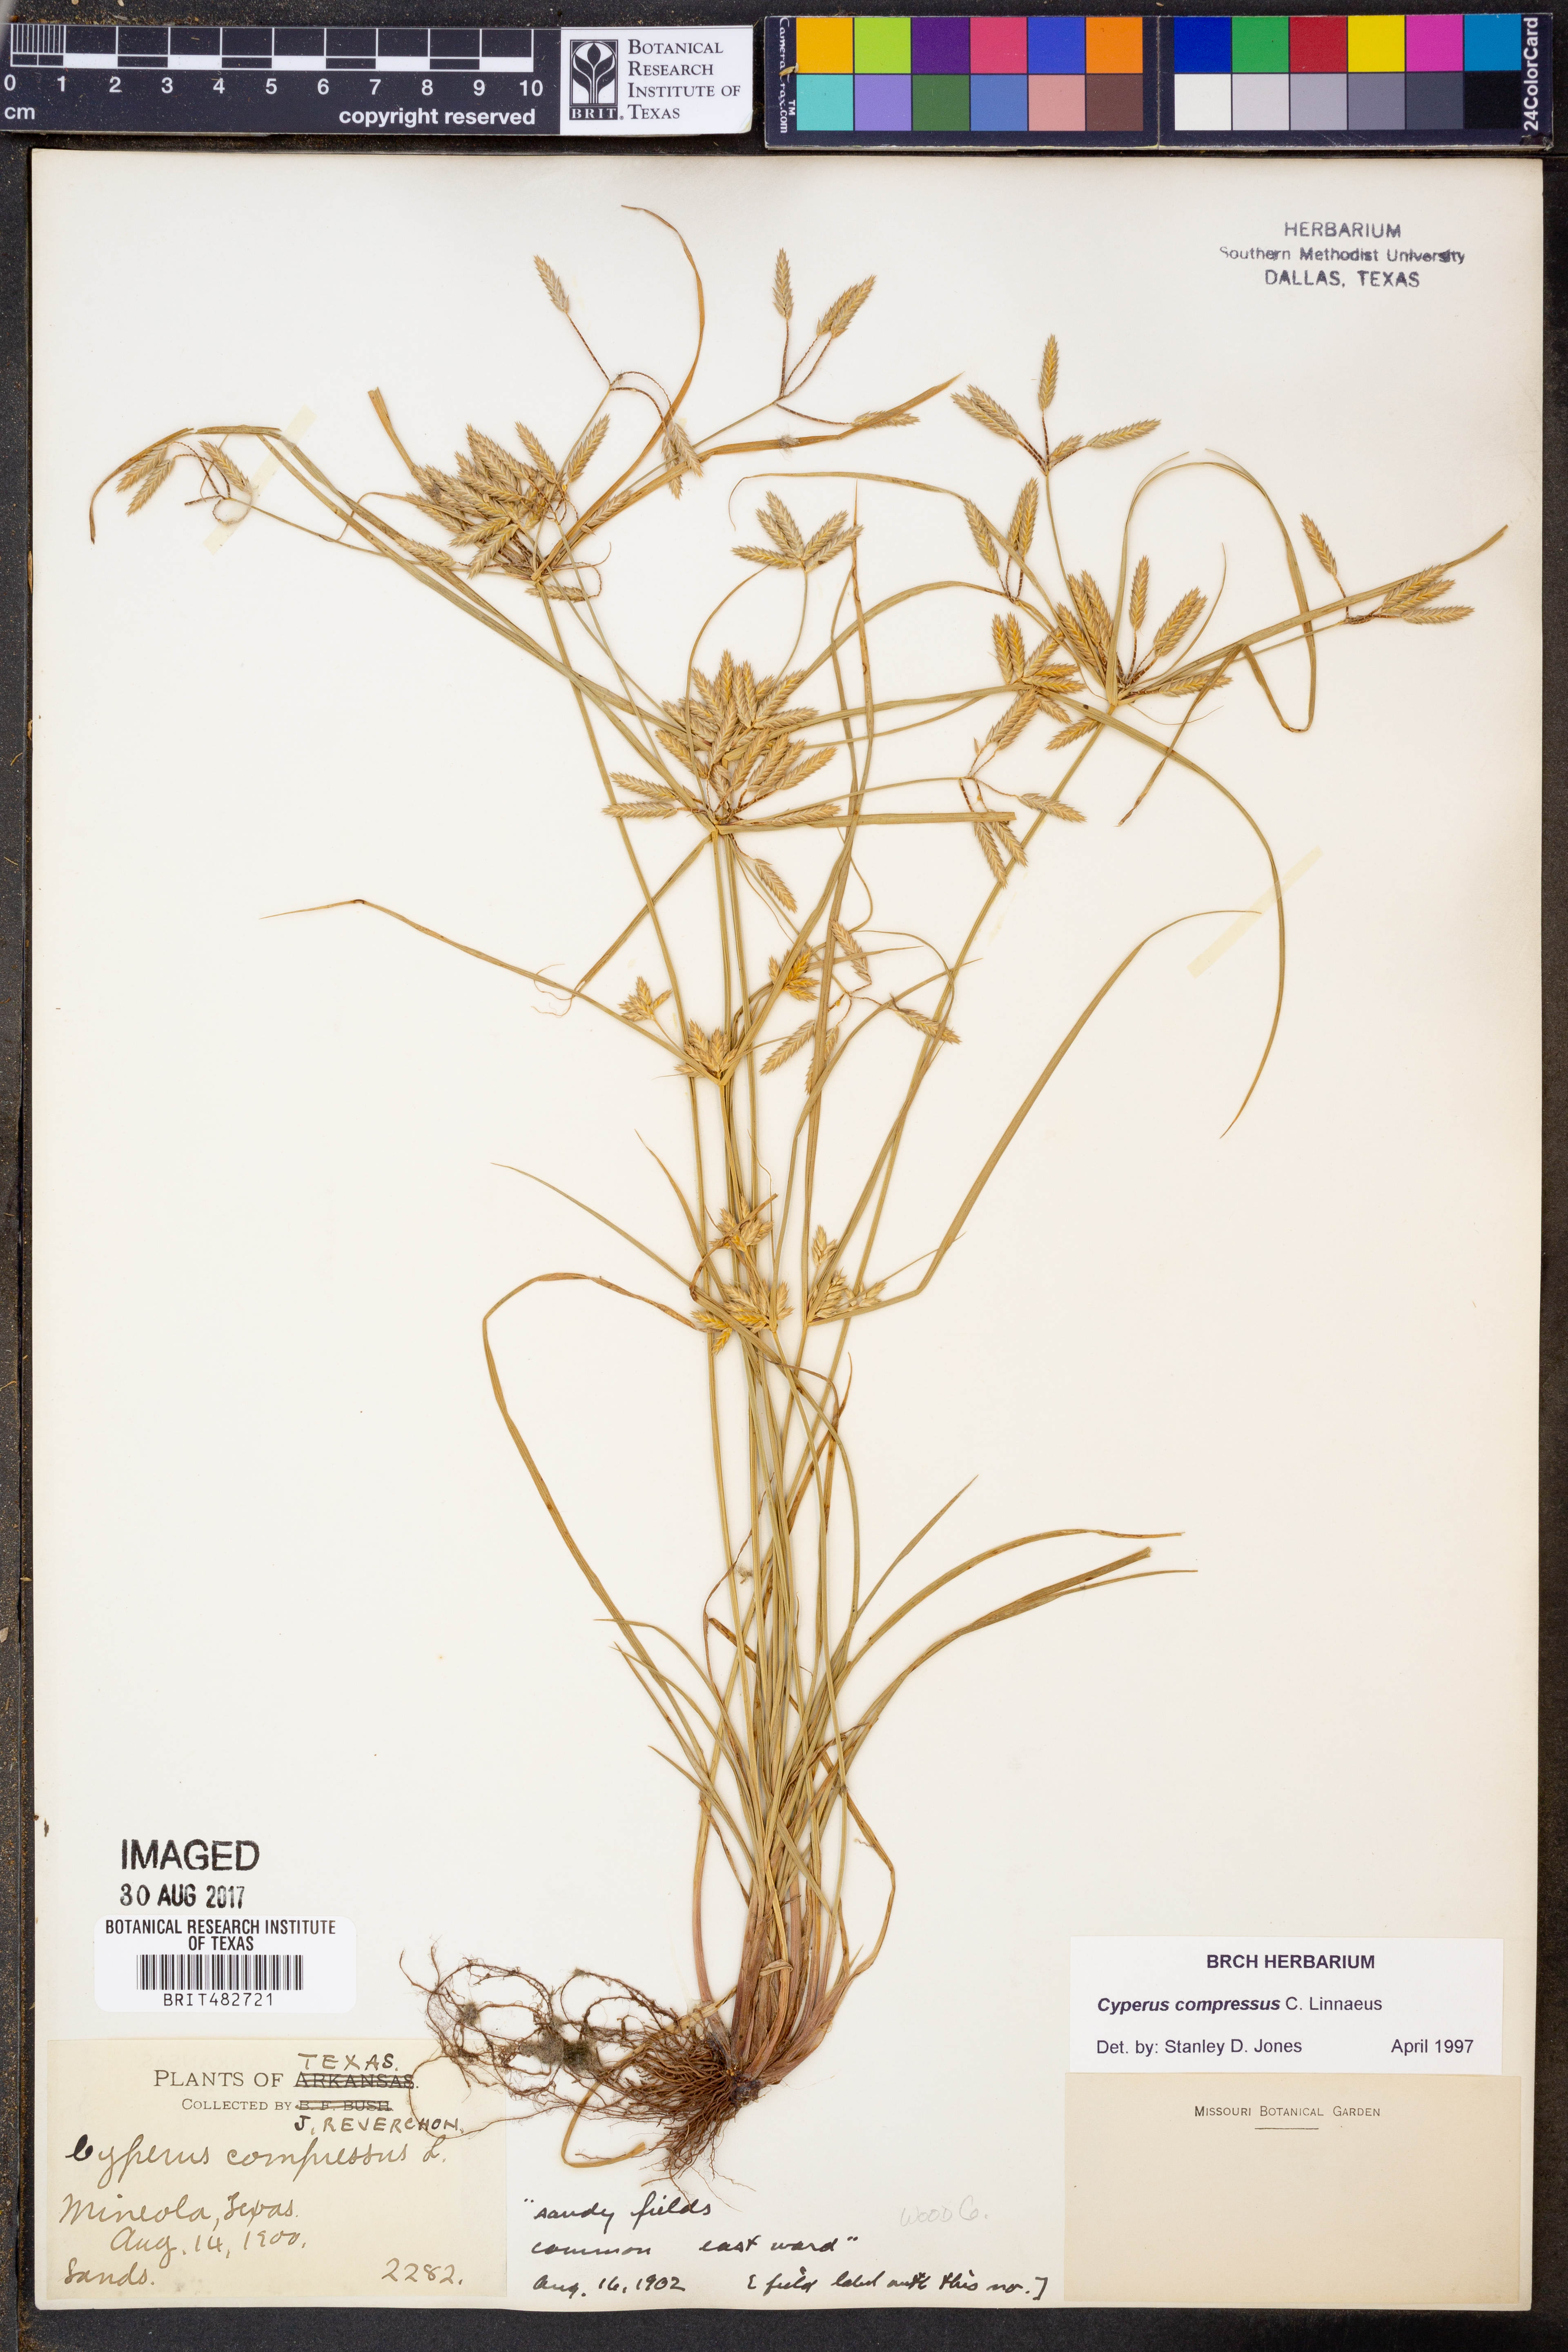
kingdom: Plantae
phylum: Tracheophyta
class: Liliopsida
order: Poales
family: Cyperaceae
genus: Cyperus
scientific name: Cyperus compressus
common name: Poorland flatsedge
